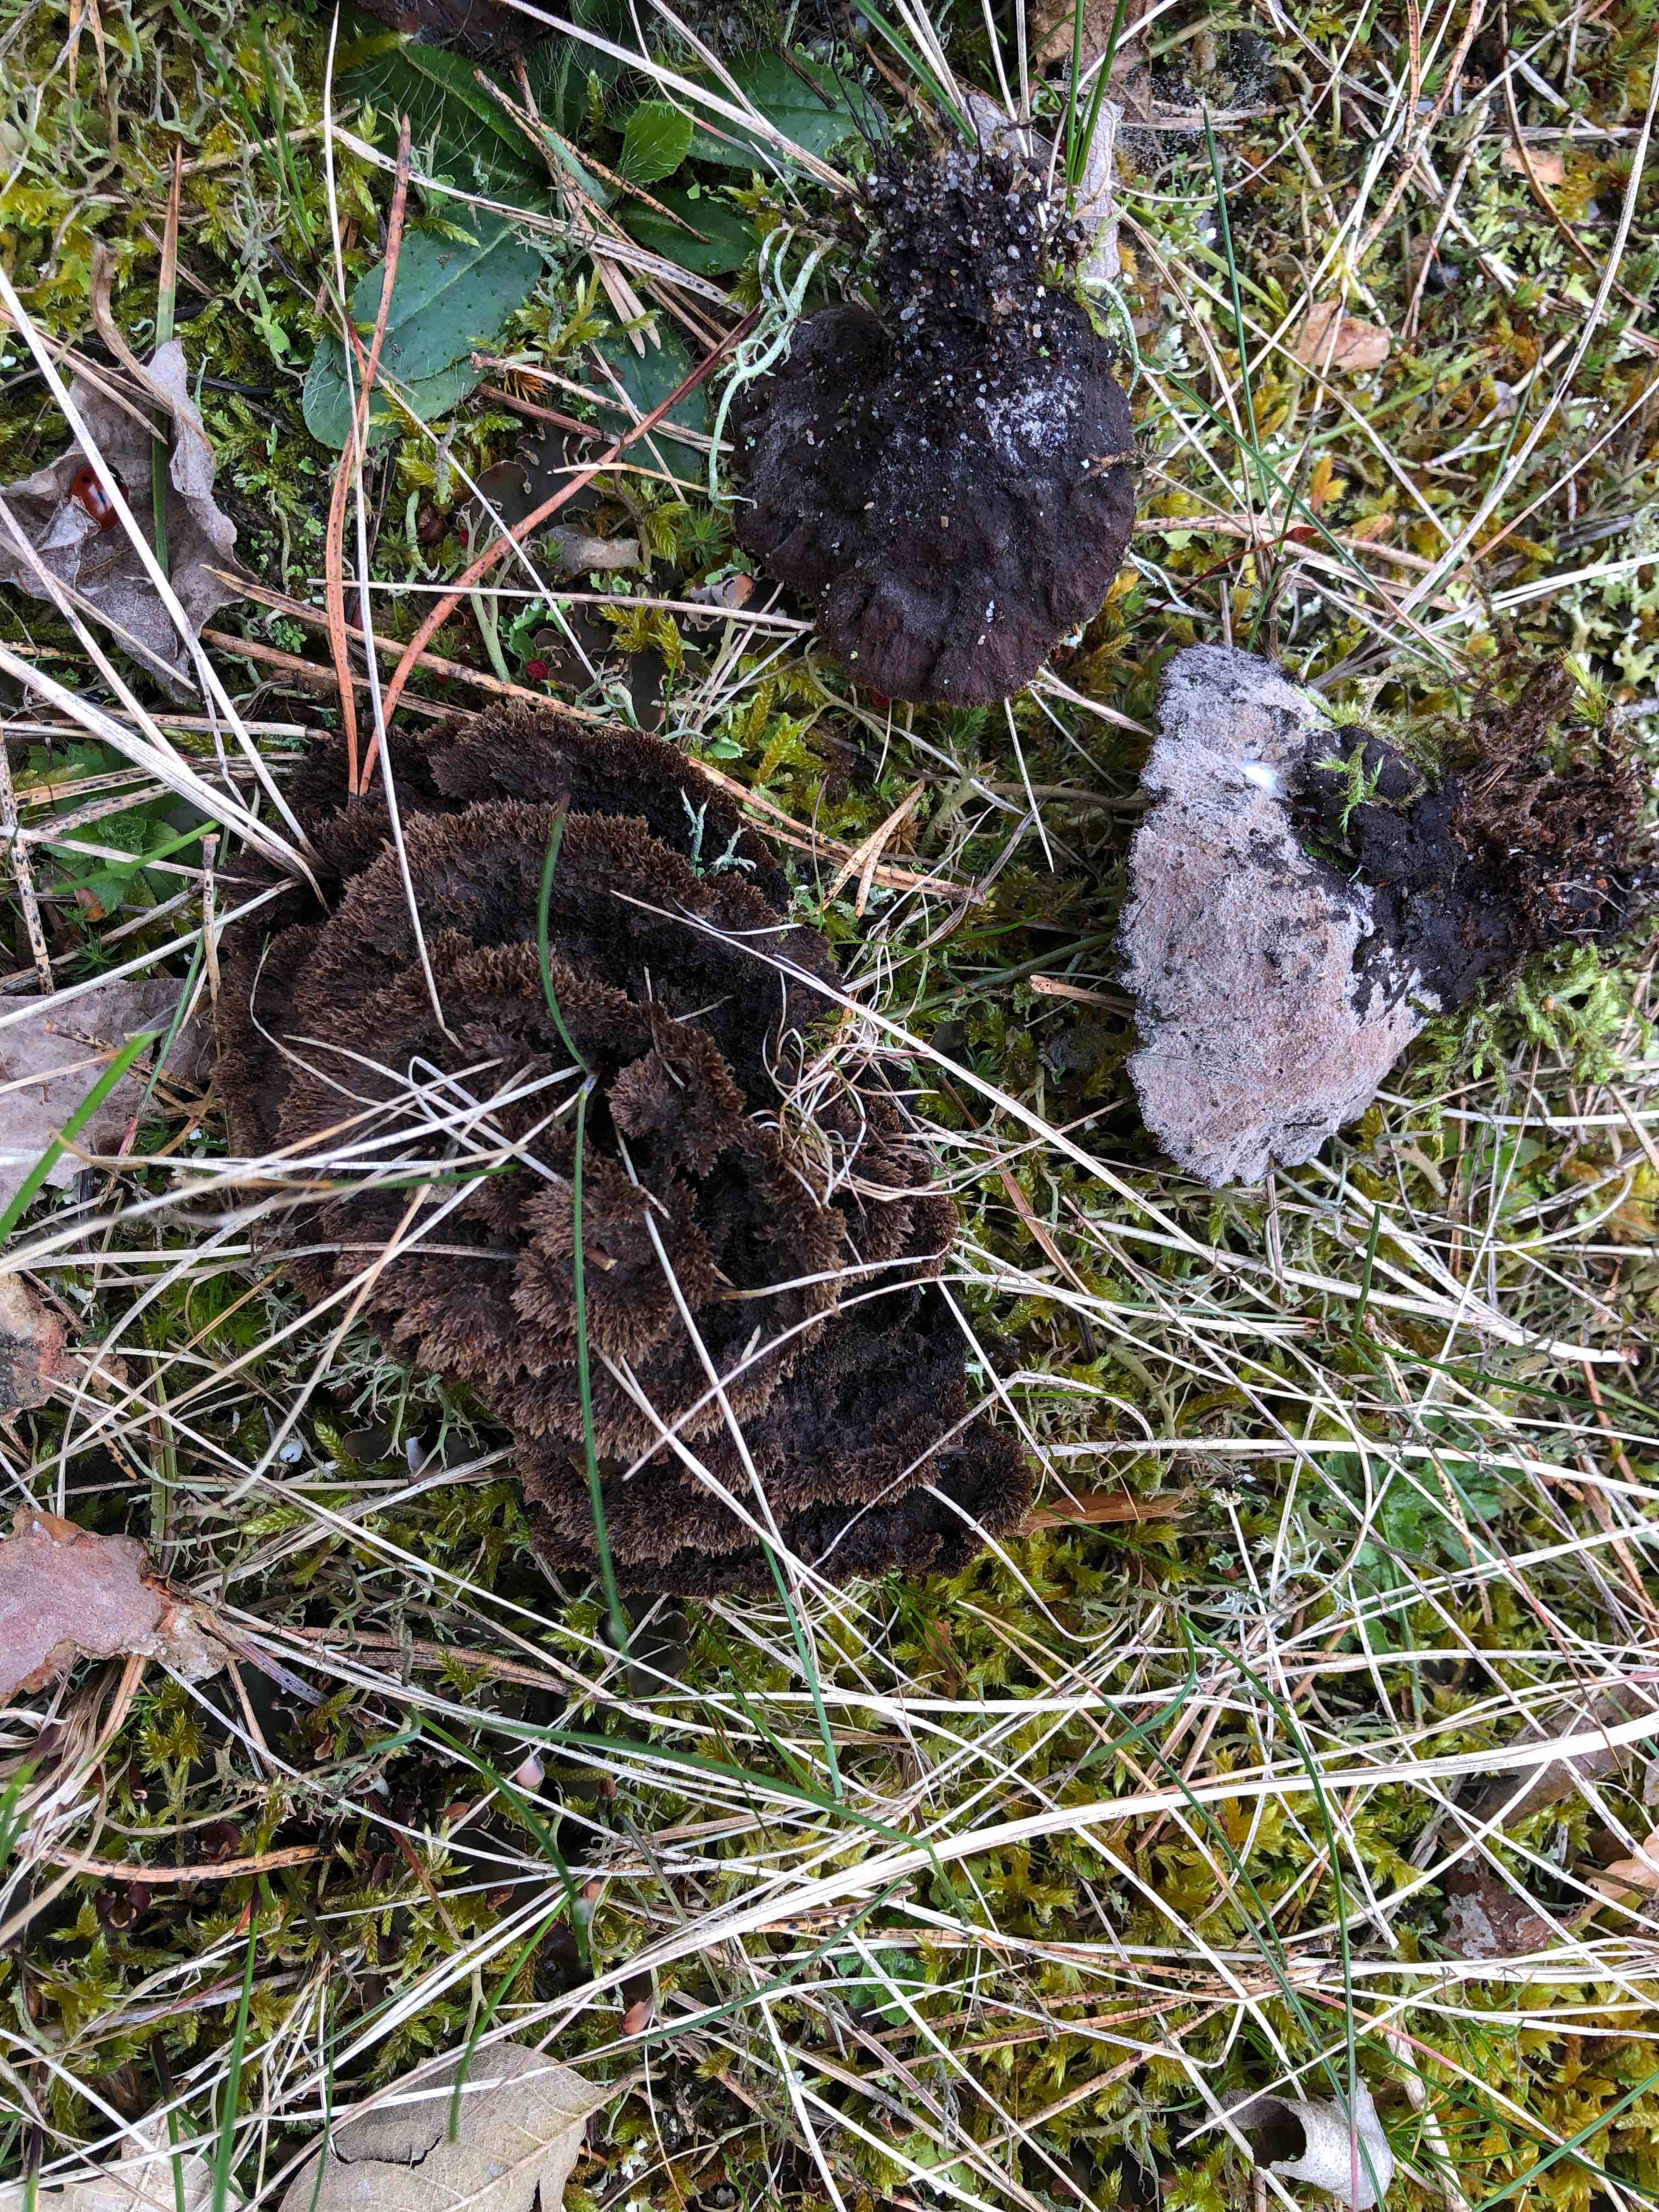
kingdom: Fungi
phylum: Basidiomycota
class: Agaricomycetes
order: Thelephorales
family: Thelephoraceae
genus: Thelephora
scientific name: Thelephora terrestris
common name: fliget frynsesvamp
